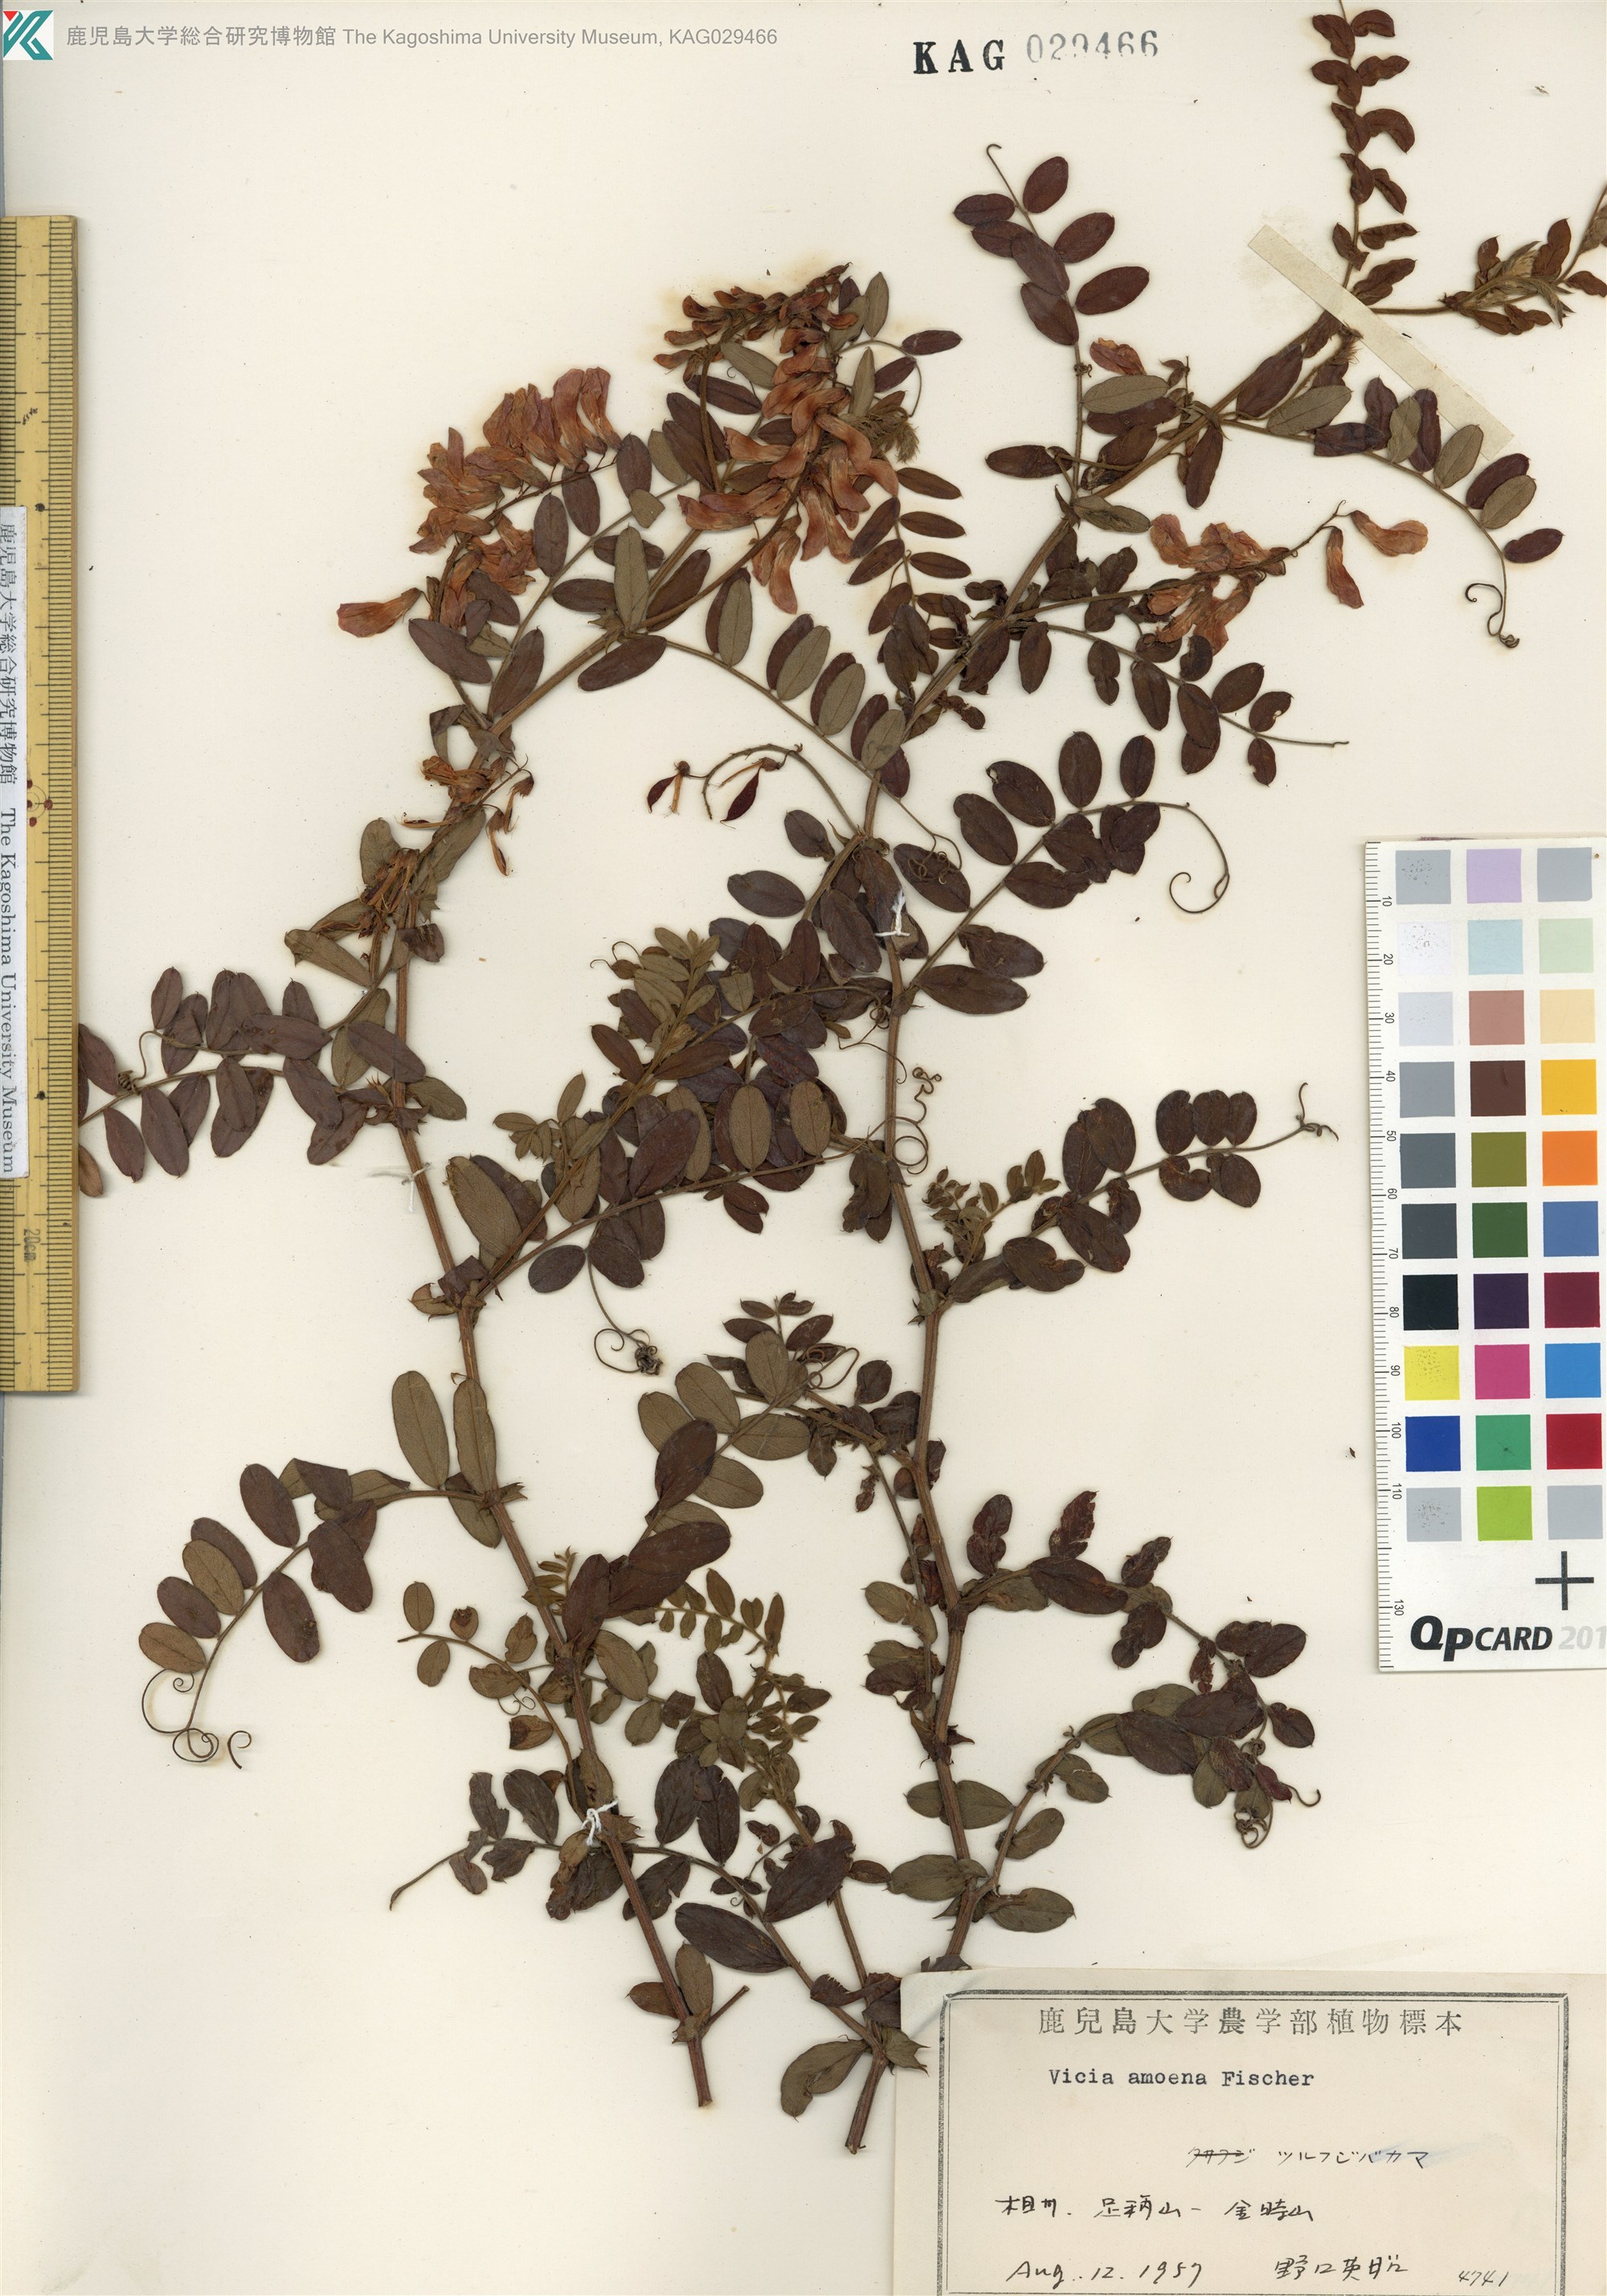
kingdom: Plantae
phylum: Tracheophyta
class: Magnoliopsida
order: Fabales
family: Fabaceae
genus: Vicia
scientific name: Vicia amoena
